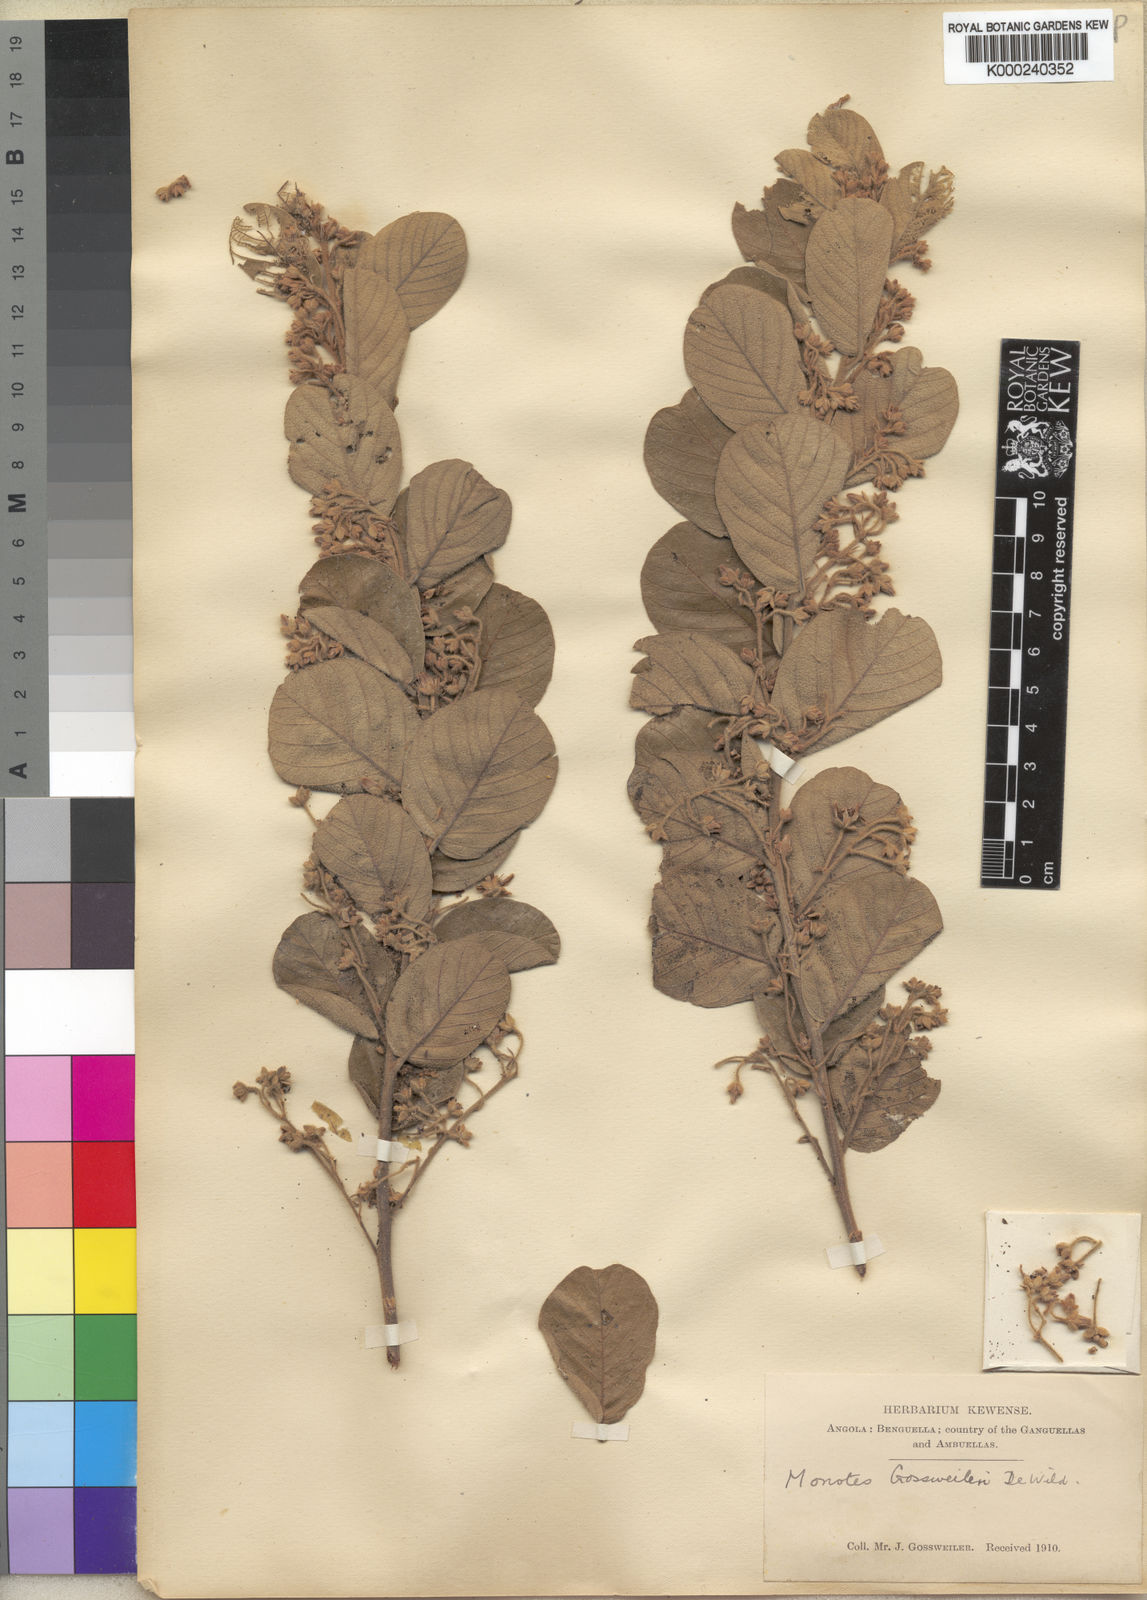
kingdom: Plantae
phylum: Tracheophyta
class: Magnoliopsida
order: Malvales
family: Dipterocarpaceae
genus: Monotes
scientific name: Monotes gossweileri
